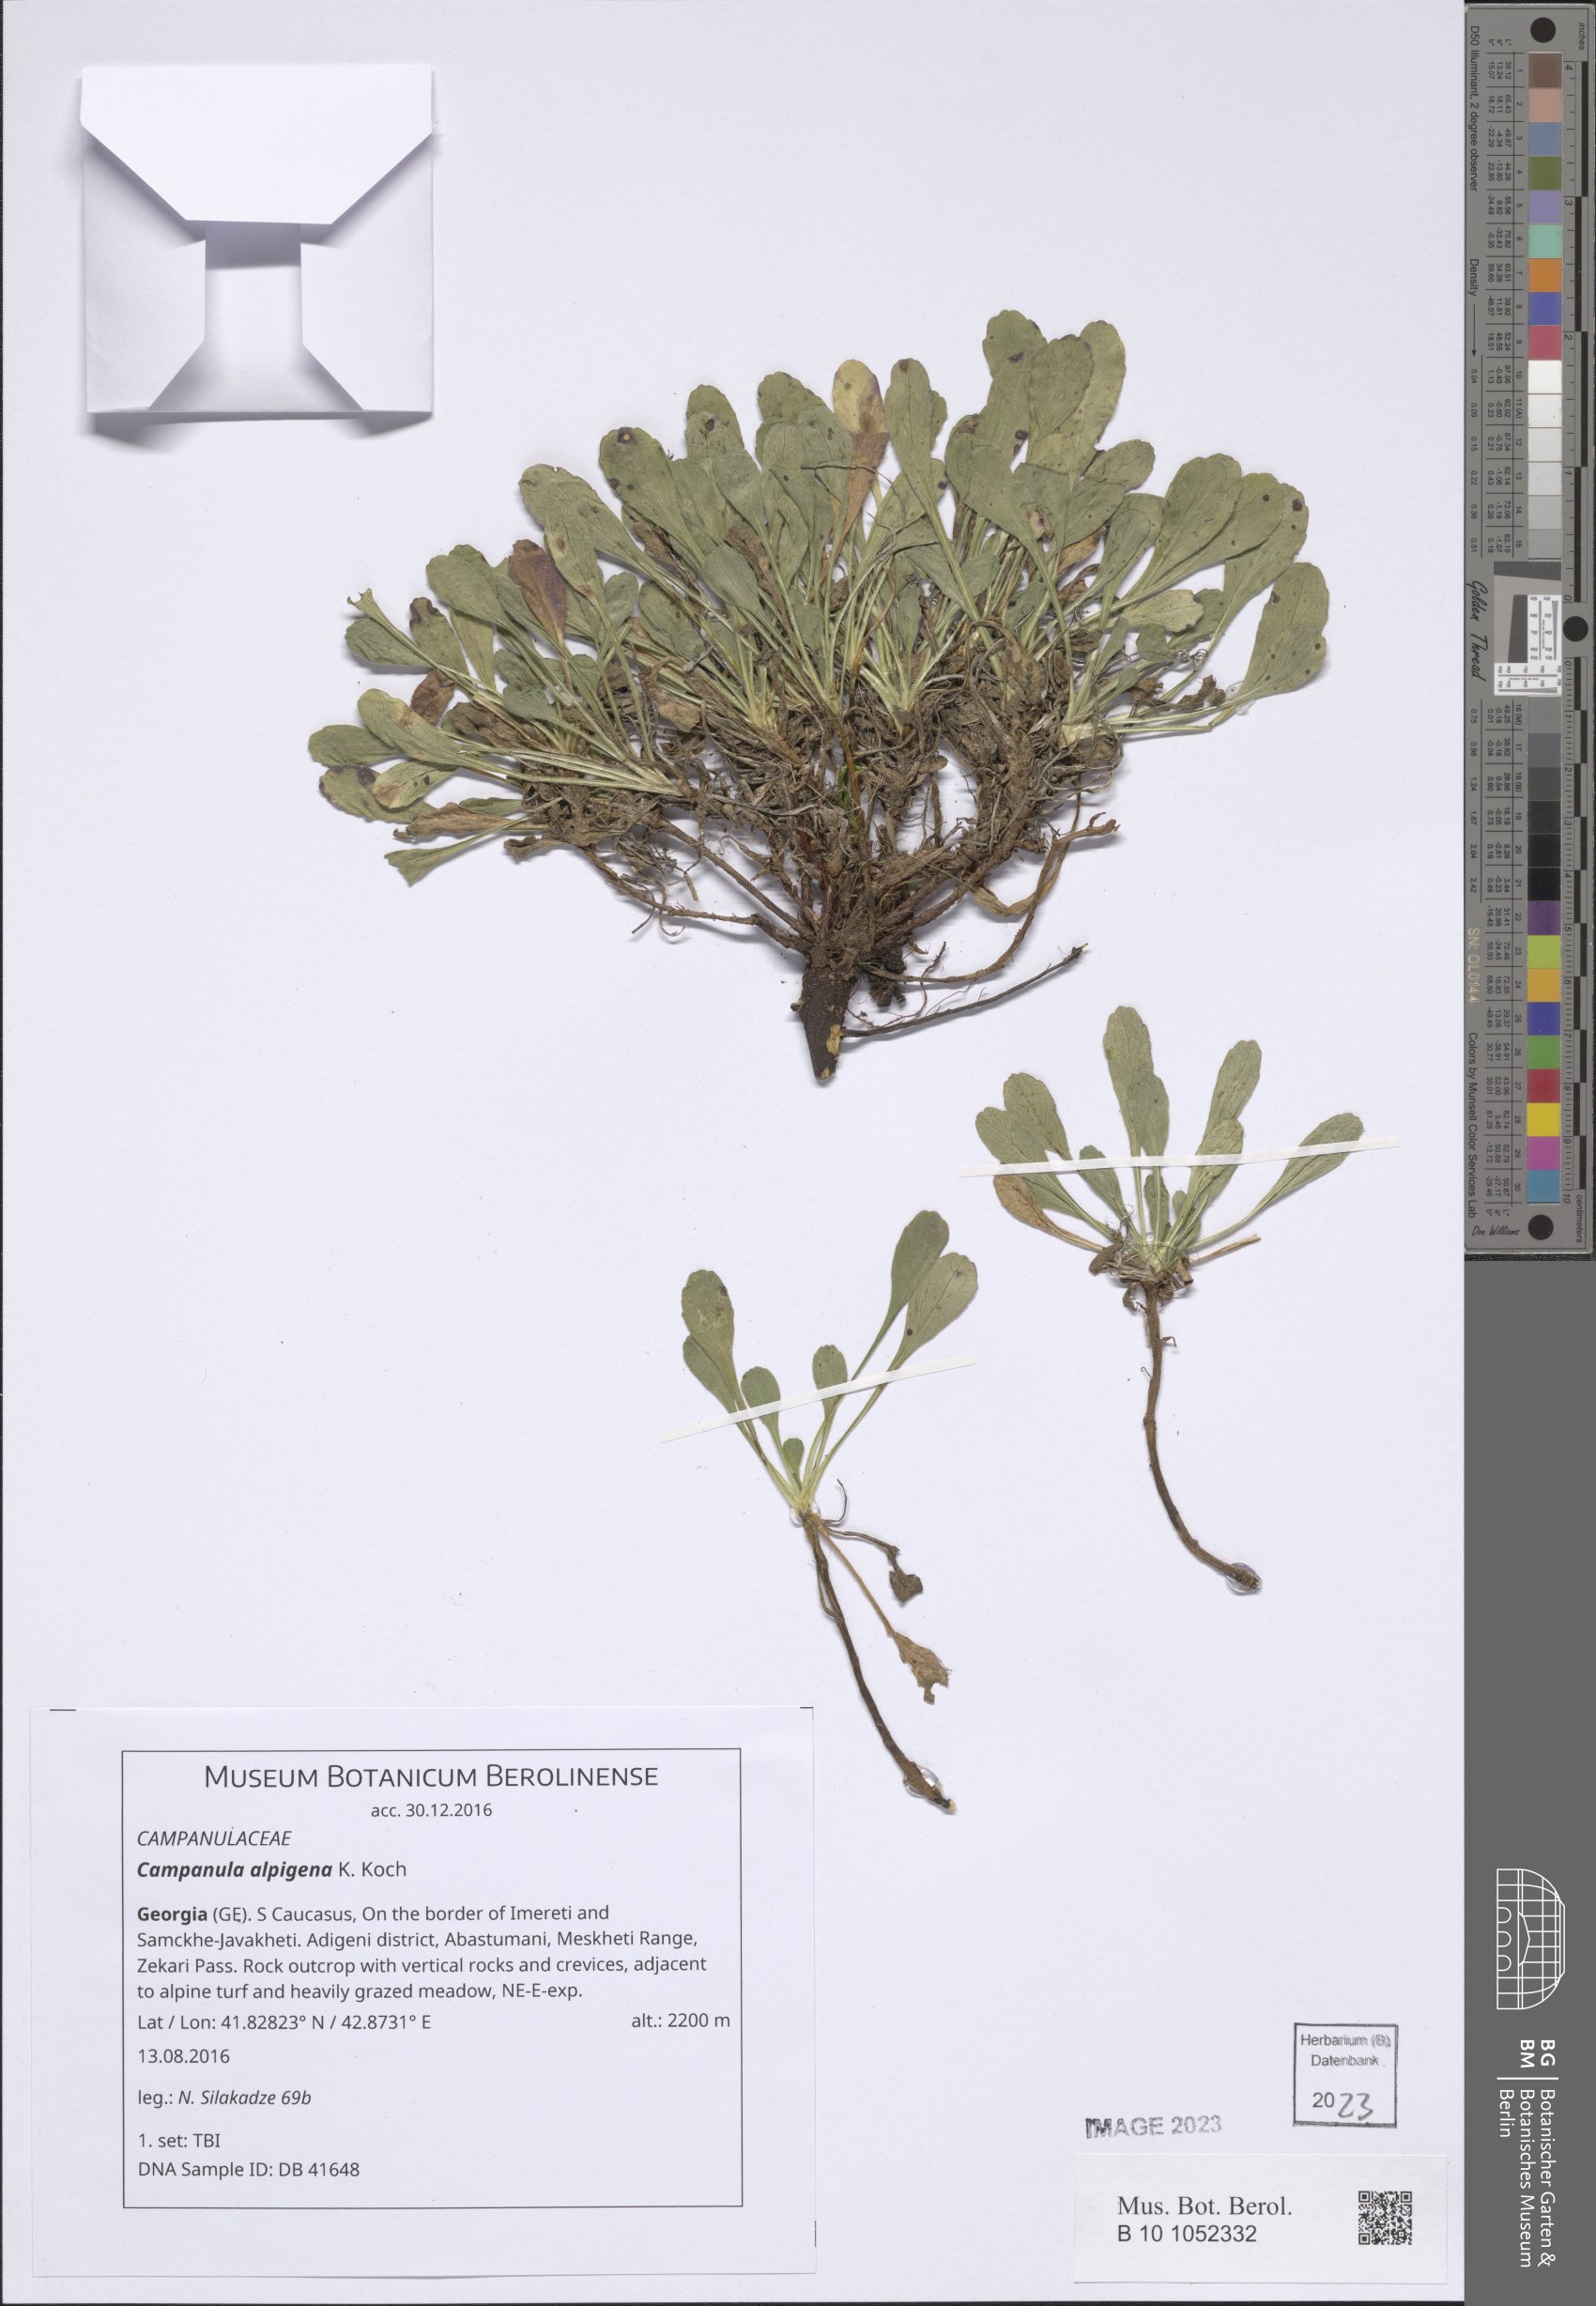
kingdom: Plantae
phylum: Tracheophyta
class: Magnoliopsida
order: Asterales
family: Campanulaceae
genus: Campanula
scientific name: Campanula saxifraga
